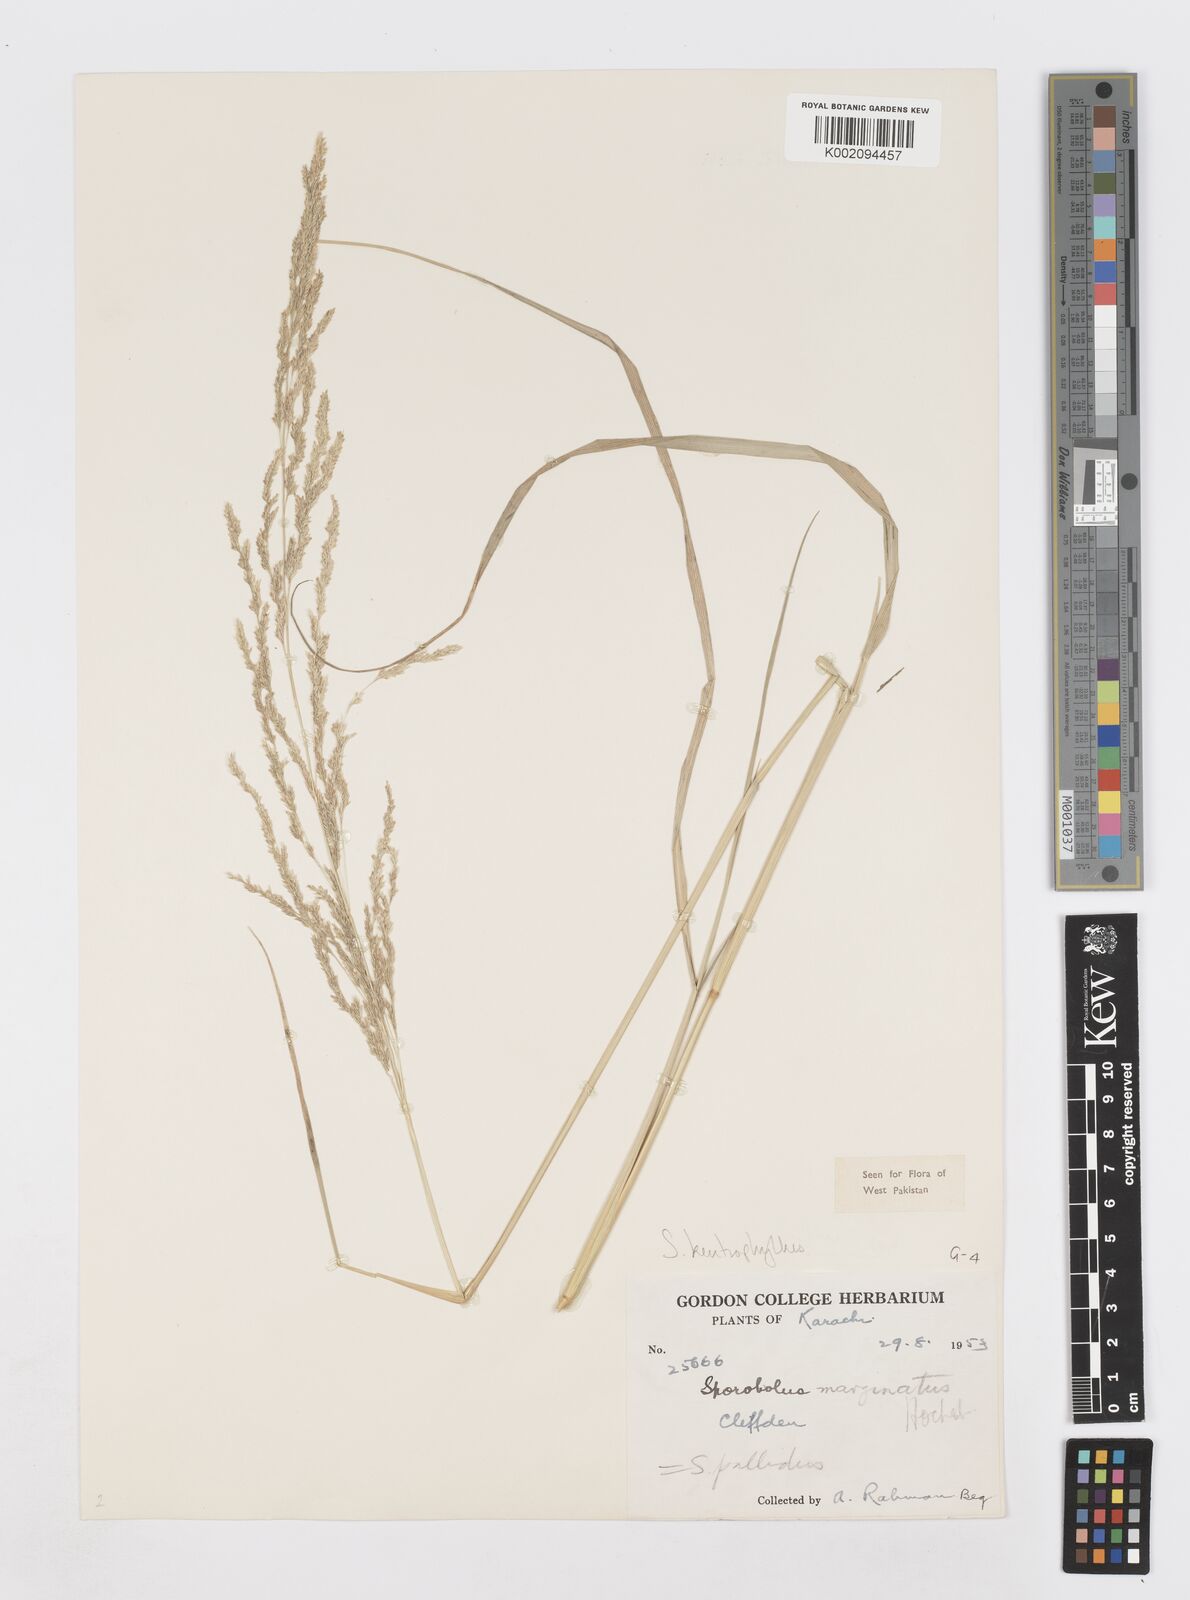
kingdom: Plantae
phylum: Tracheophyta
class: Liliopsida
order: Poales
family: Poaceae
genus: Sporobolus
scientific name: Sporobolus ioclados
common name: Pan dropseed
